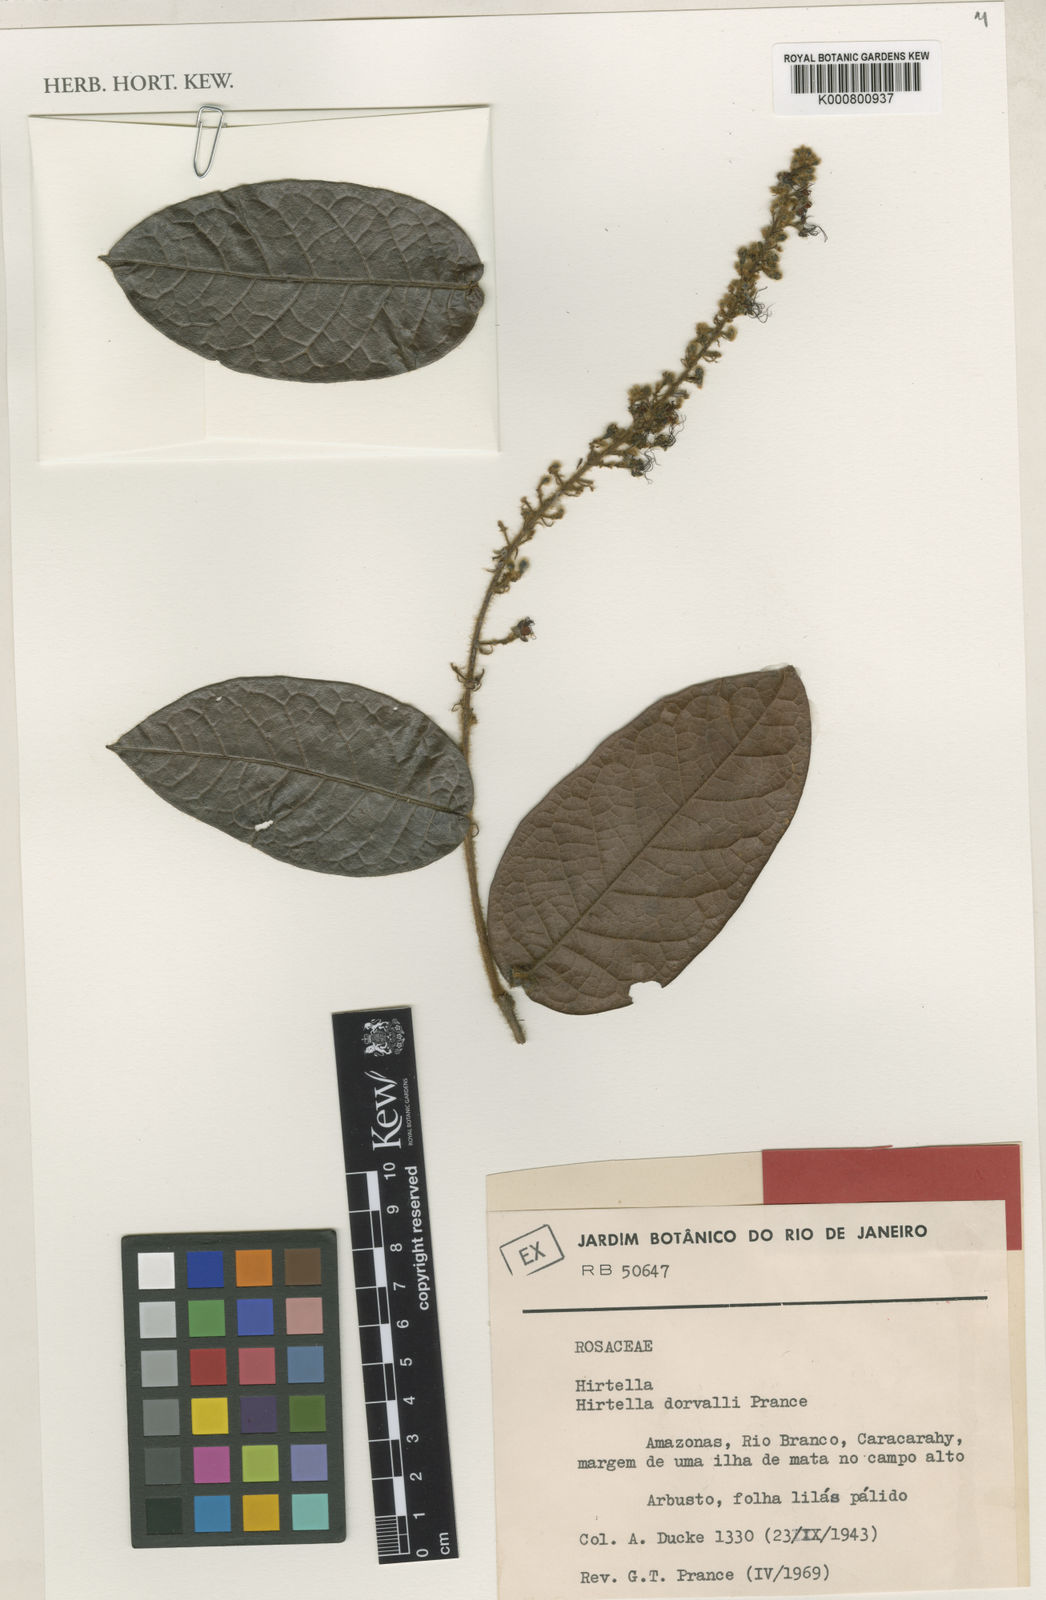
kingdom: Plantae
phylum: Tracheophyta
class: Magnoliopsida
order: Malpighiales
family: Chrysobalanaceae
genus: Hirtella
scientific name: Hirtella dorvalii
